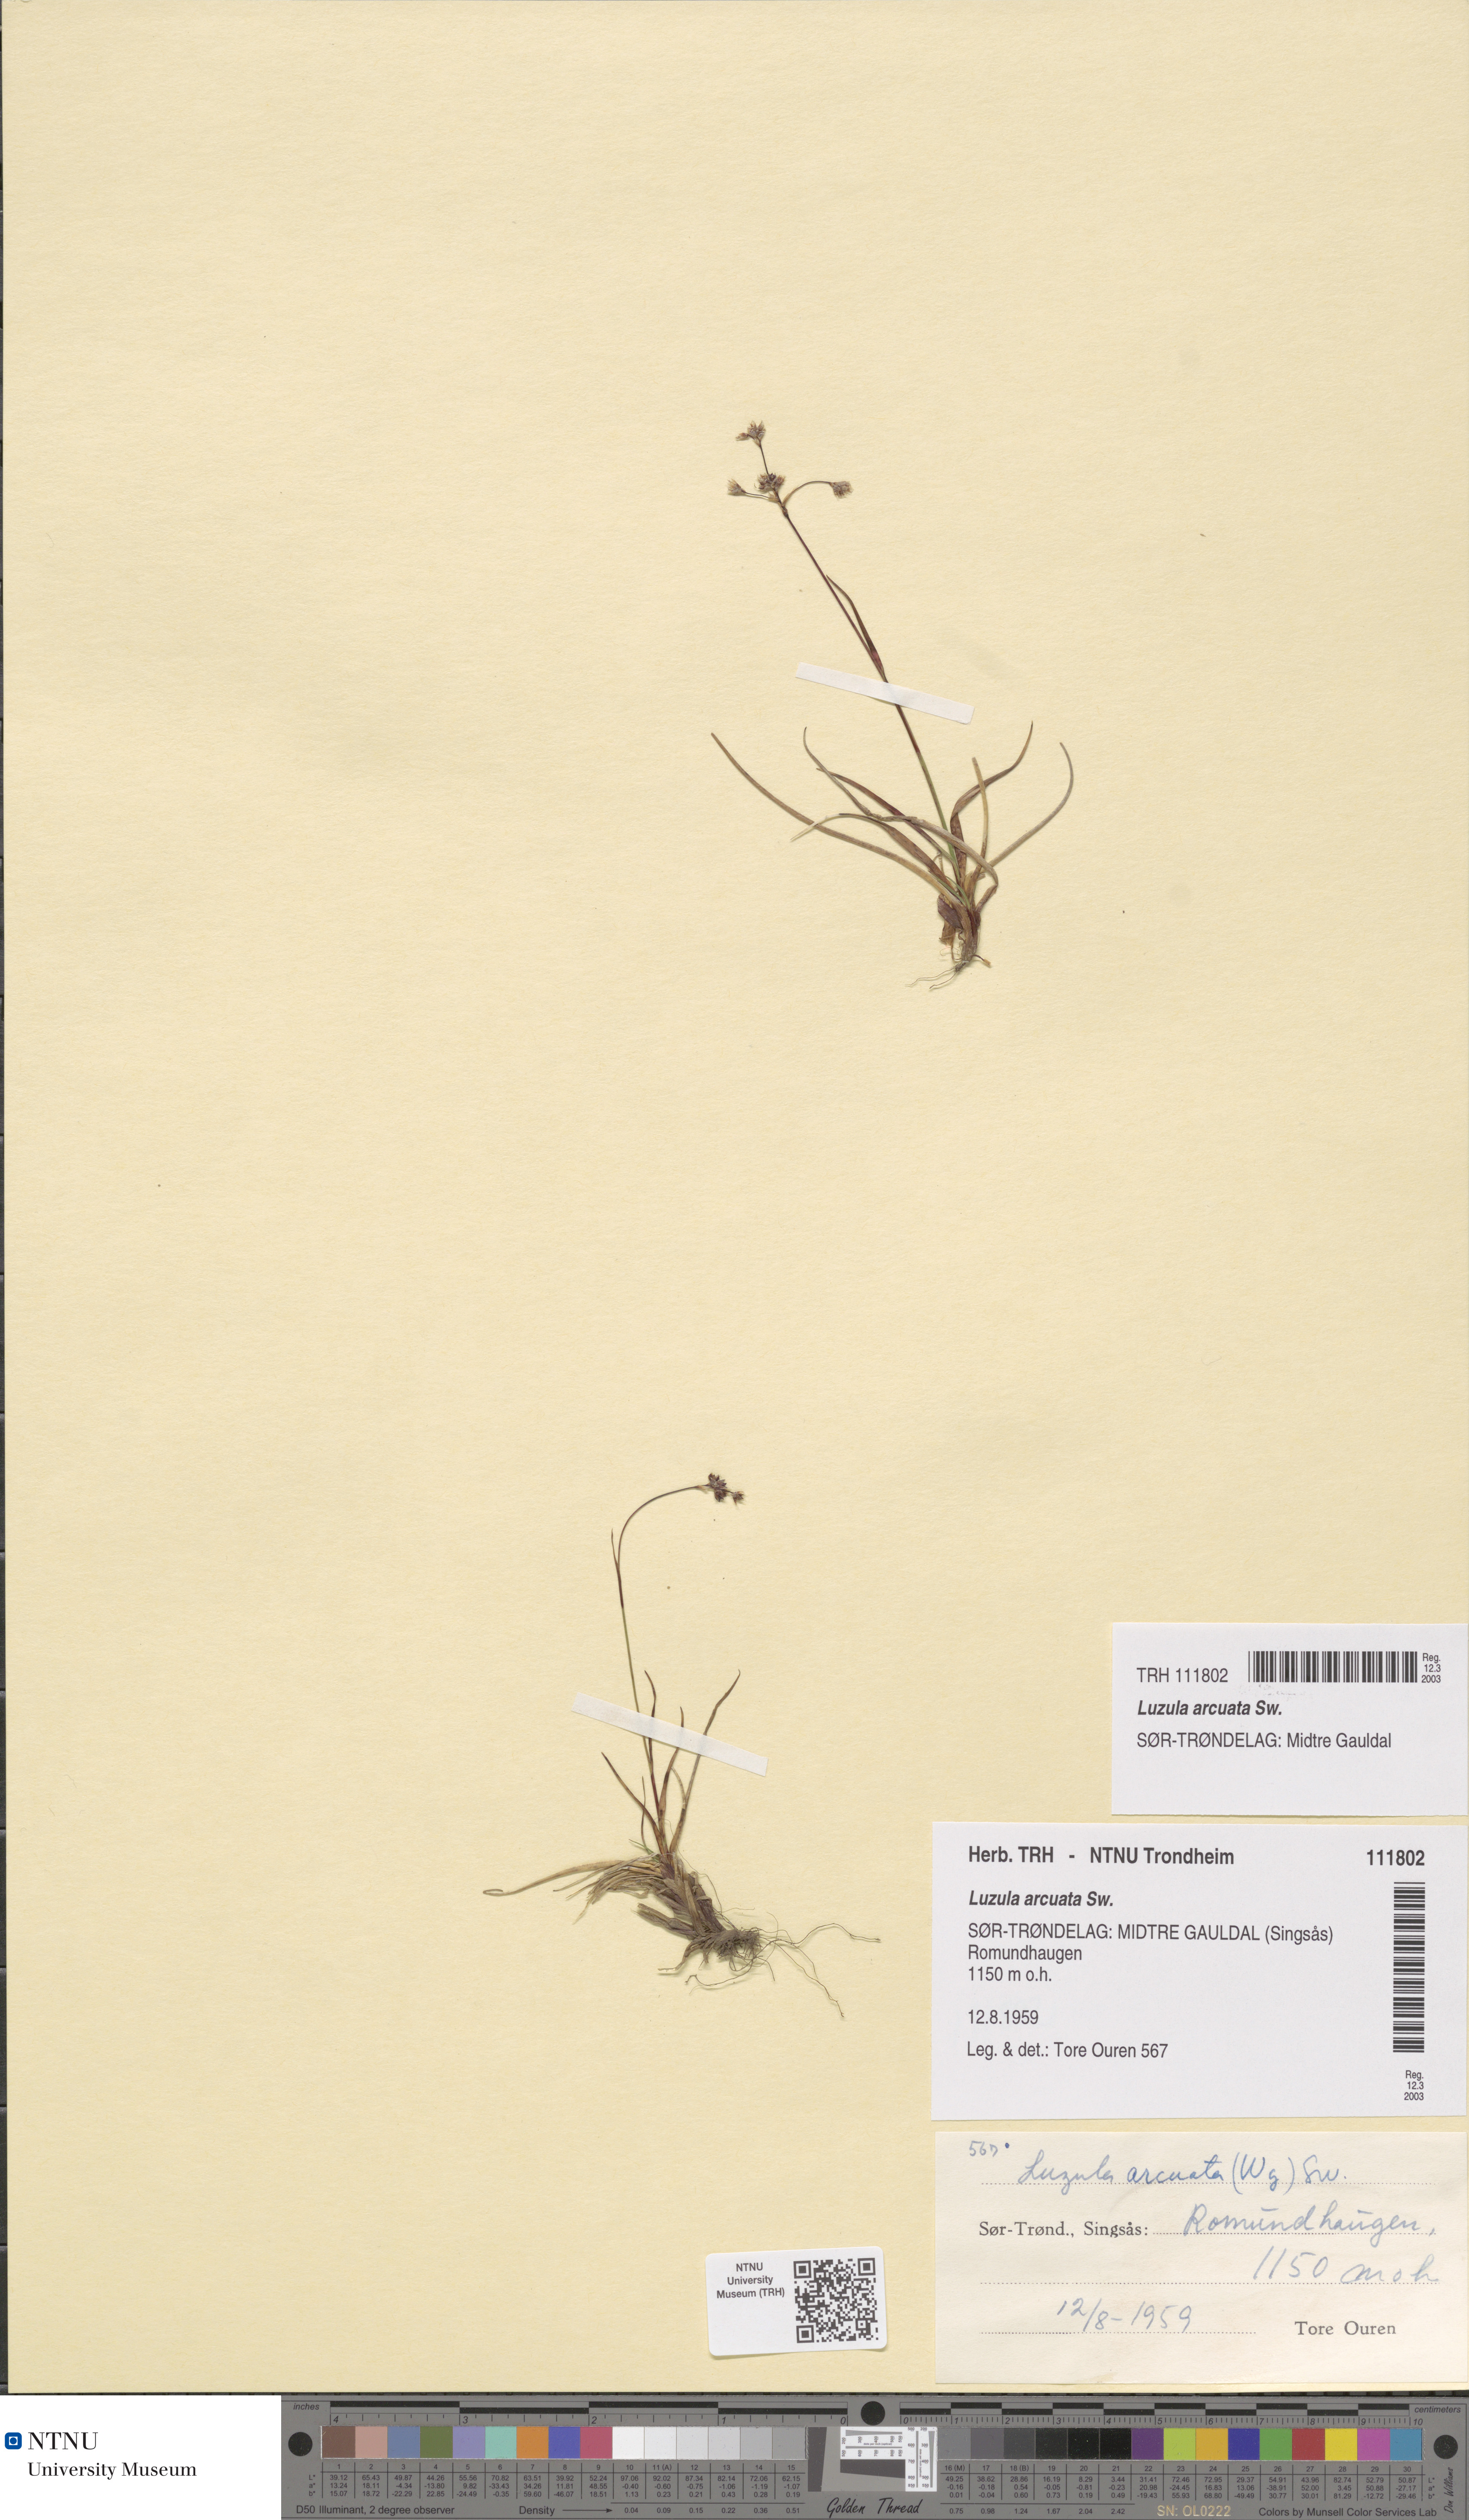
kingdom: Plantae
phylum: Tracheophyta
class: Liliopsida
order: Poales
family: Juncaceae
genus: Luzula
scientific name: Luzula arcuata
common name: Curved wood-rush
